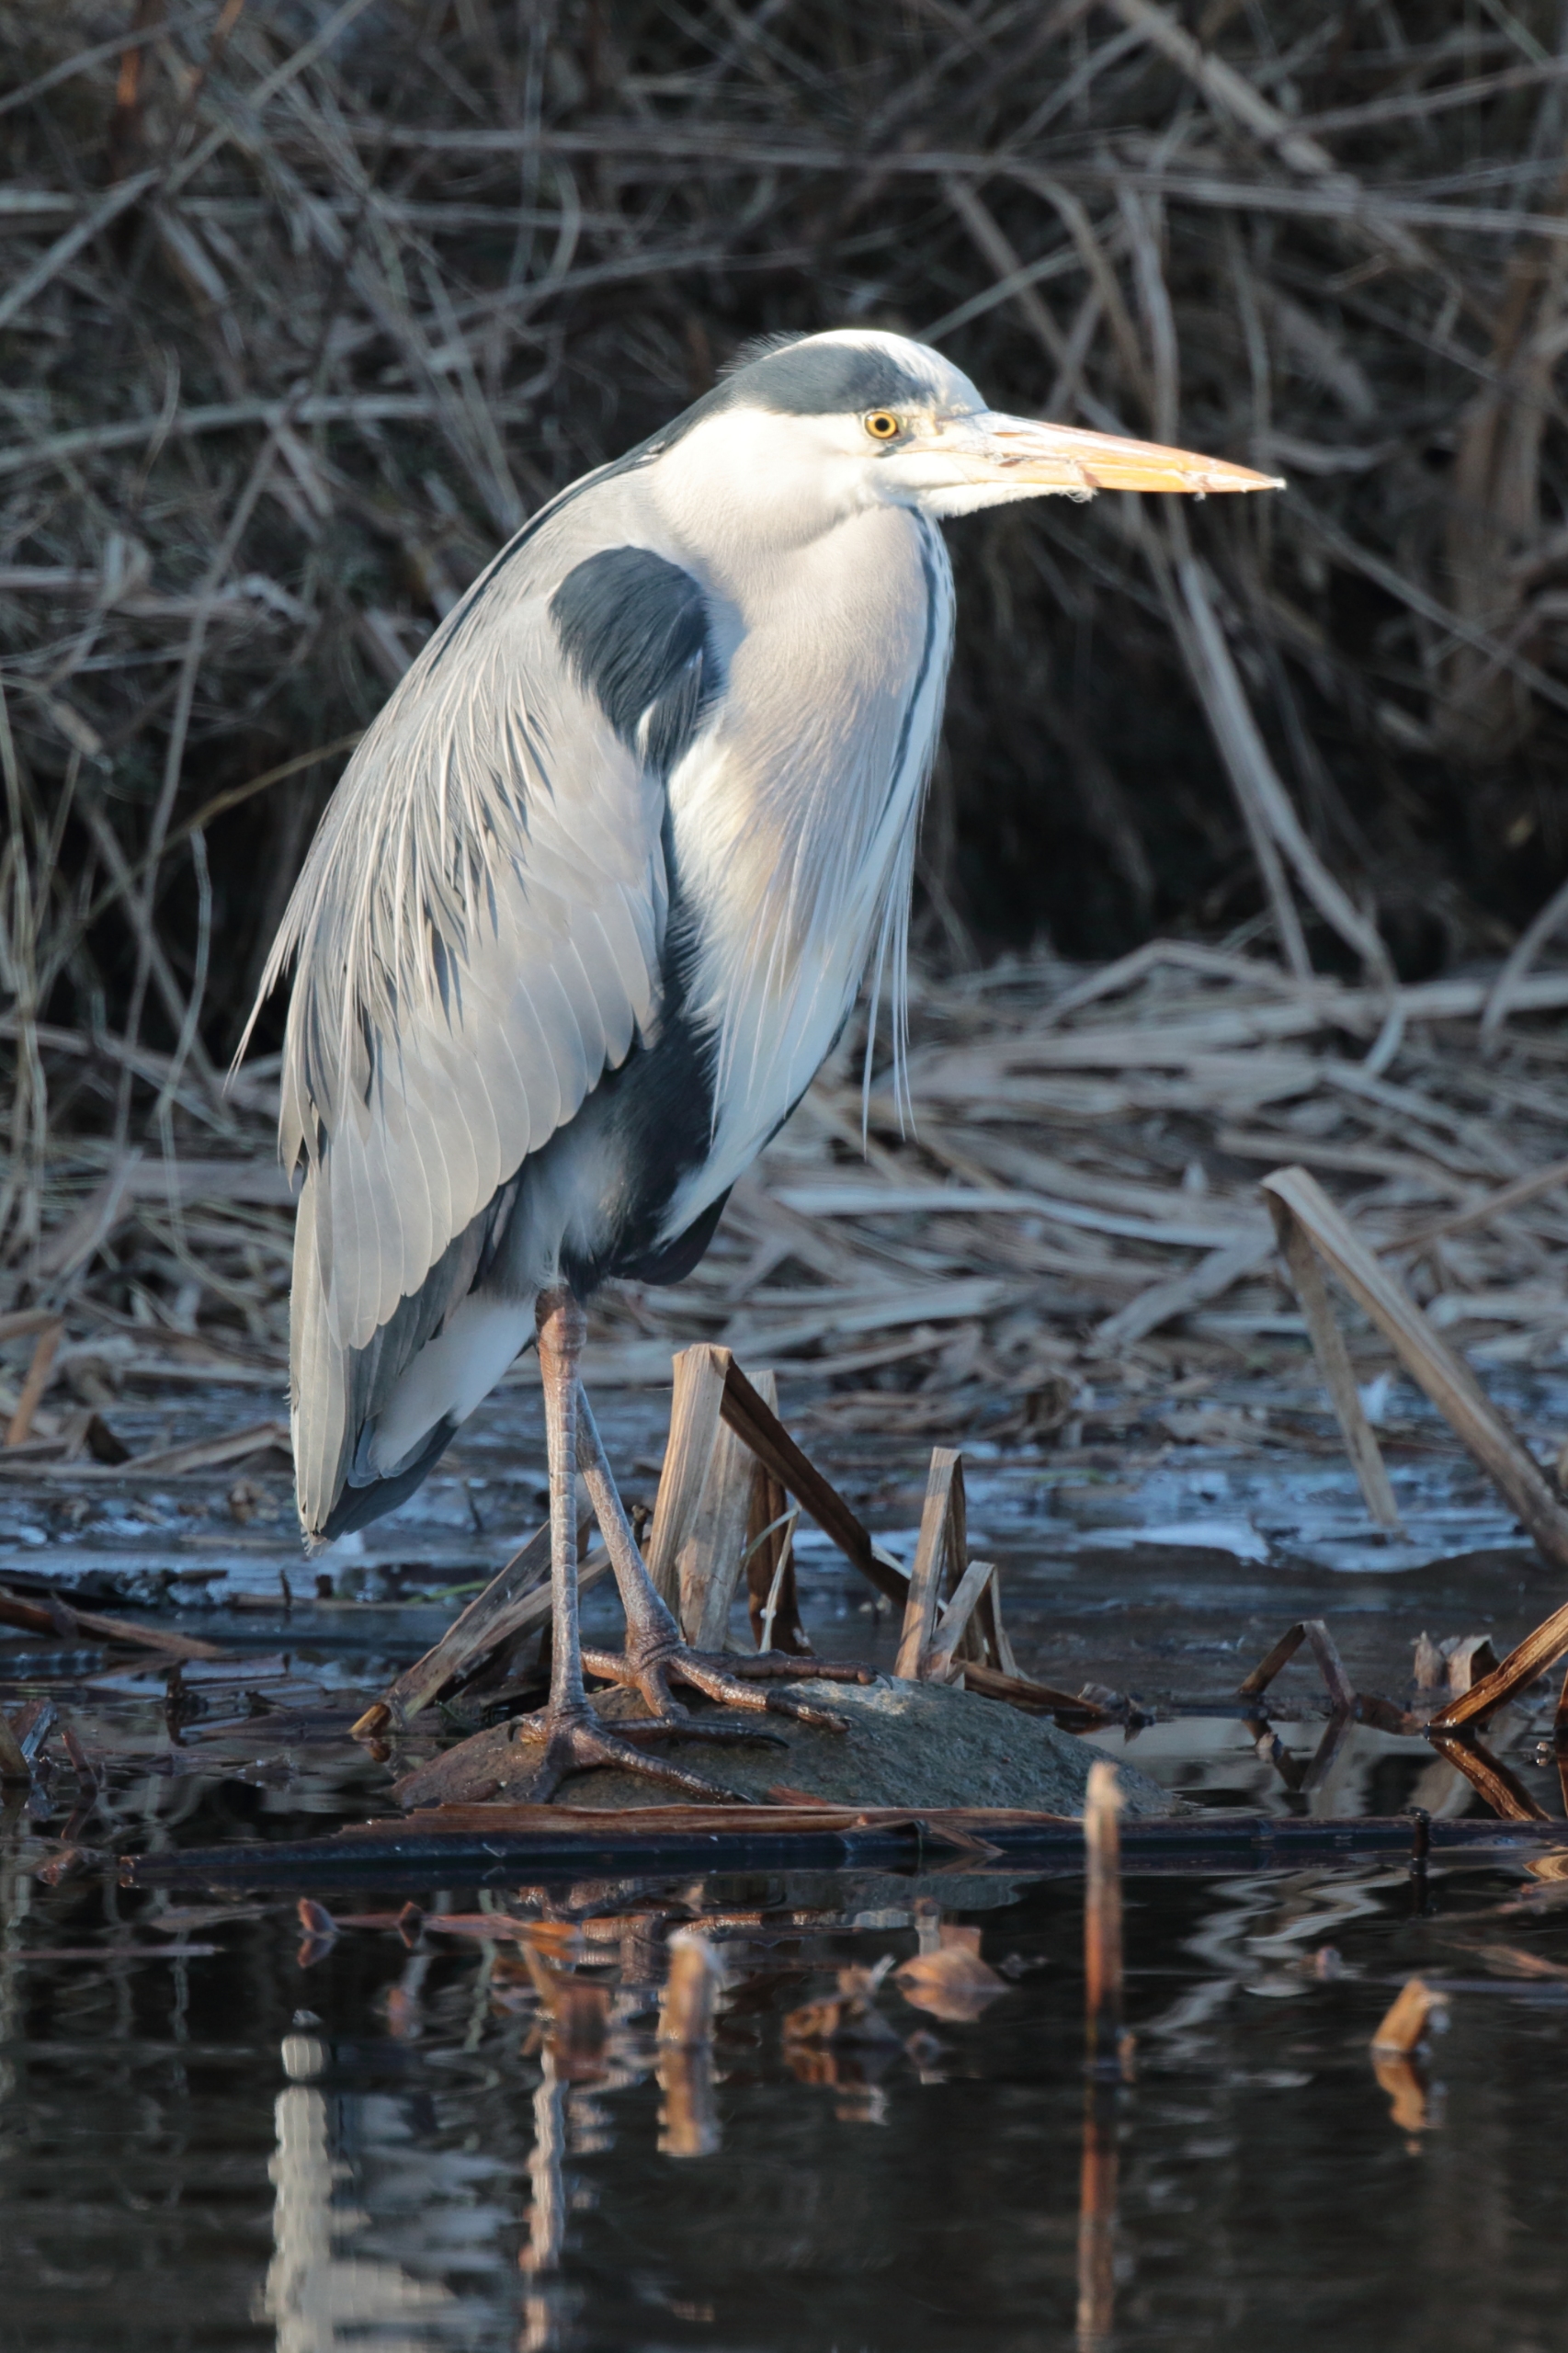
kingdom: Animalia
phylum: Chordata
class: Aves
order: Pelecaniformes
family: Ardeidae
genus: Ardea
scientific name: Ardea cinerea
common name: Fiskehejre
